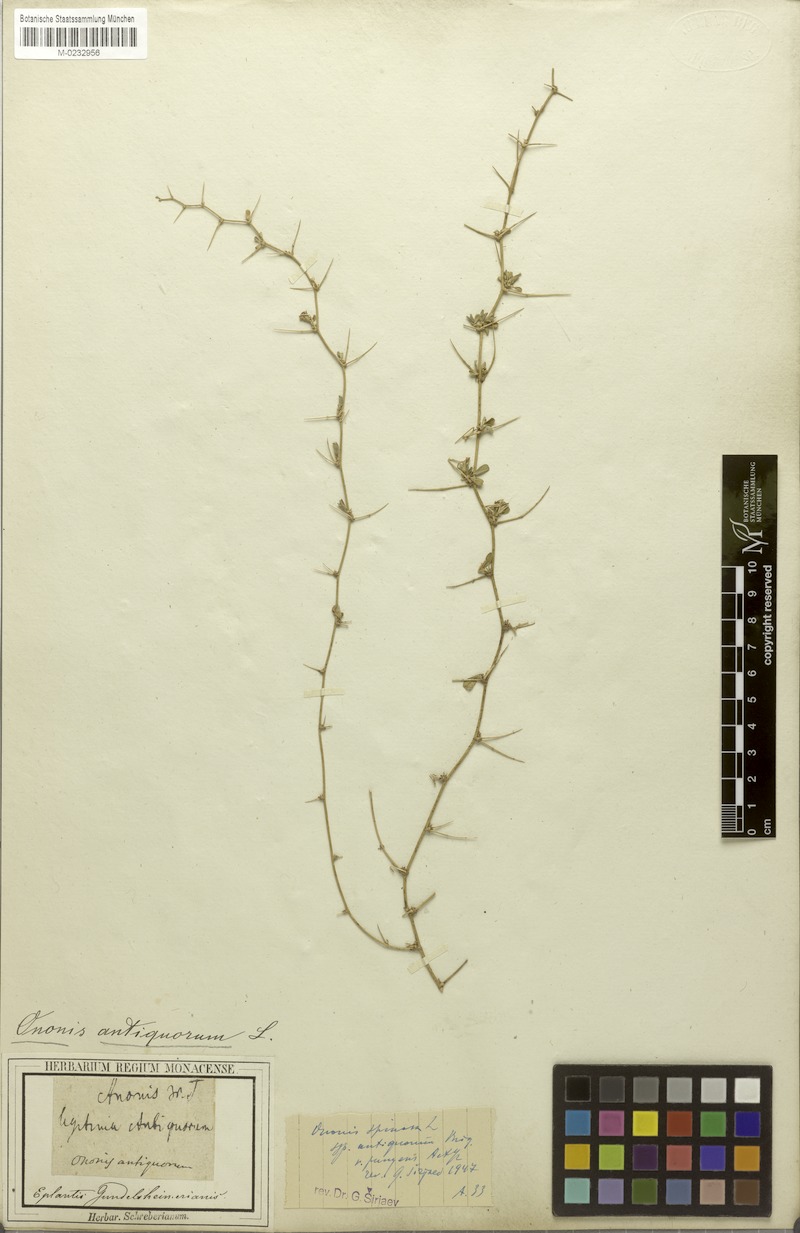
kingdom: Plantae
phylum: Tracheophyta
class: Magnoliopsida
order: Fabales
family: Fabaceae
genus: Ononis
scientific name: Ononis spinosa
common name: Spiny restharrow
